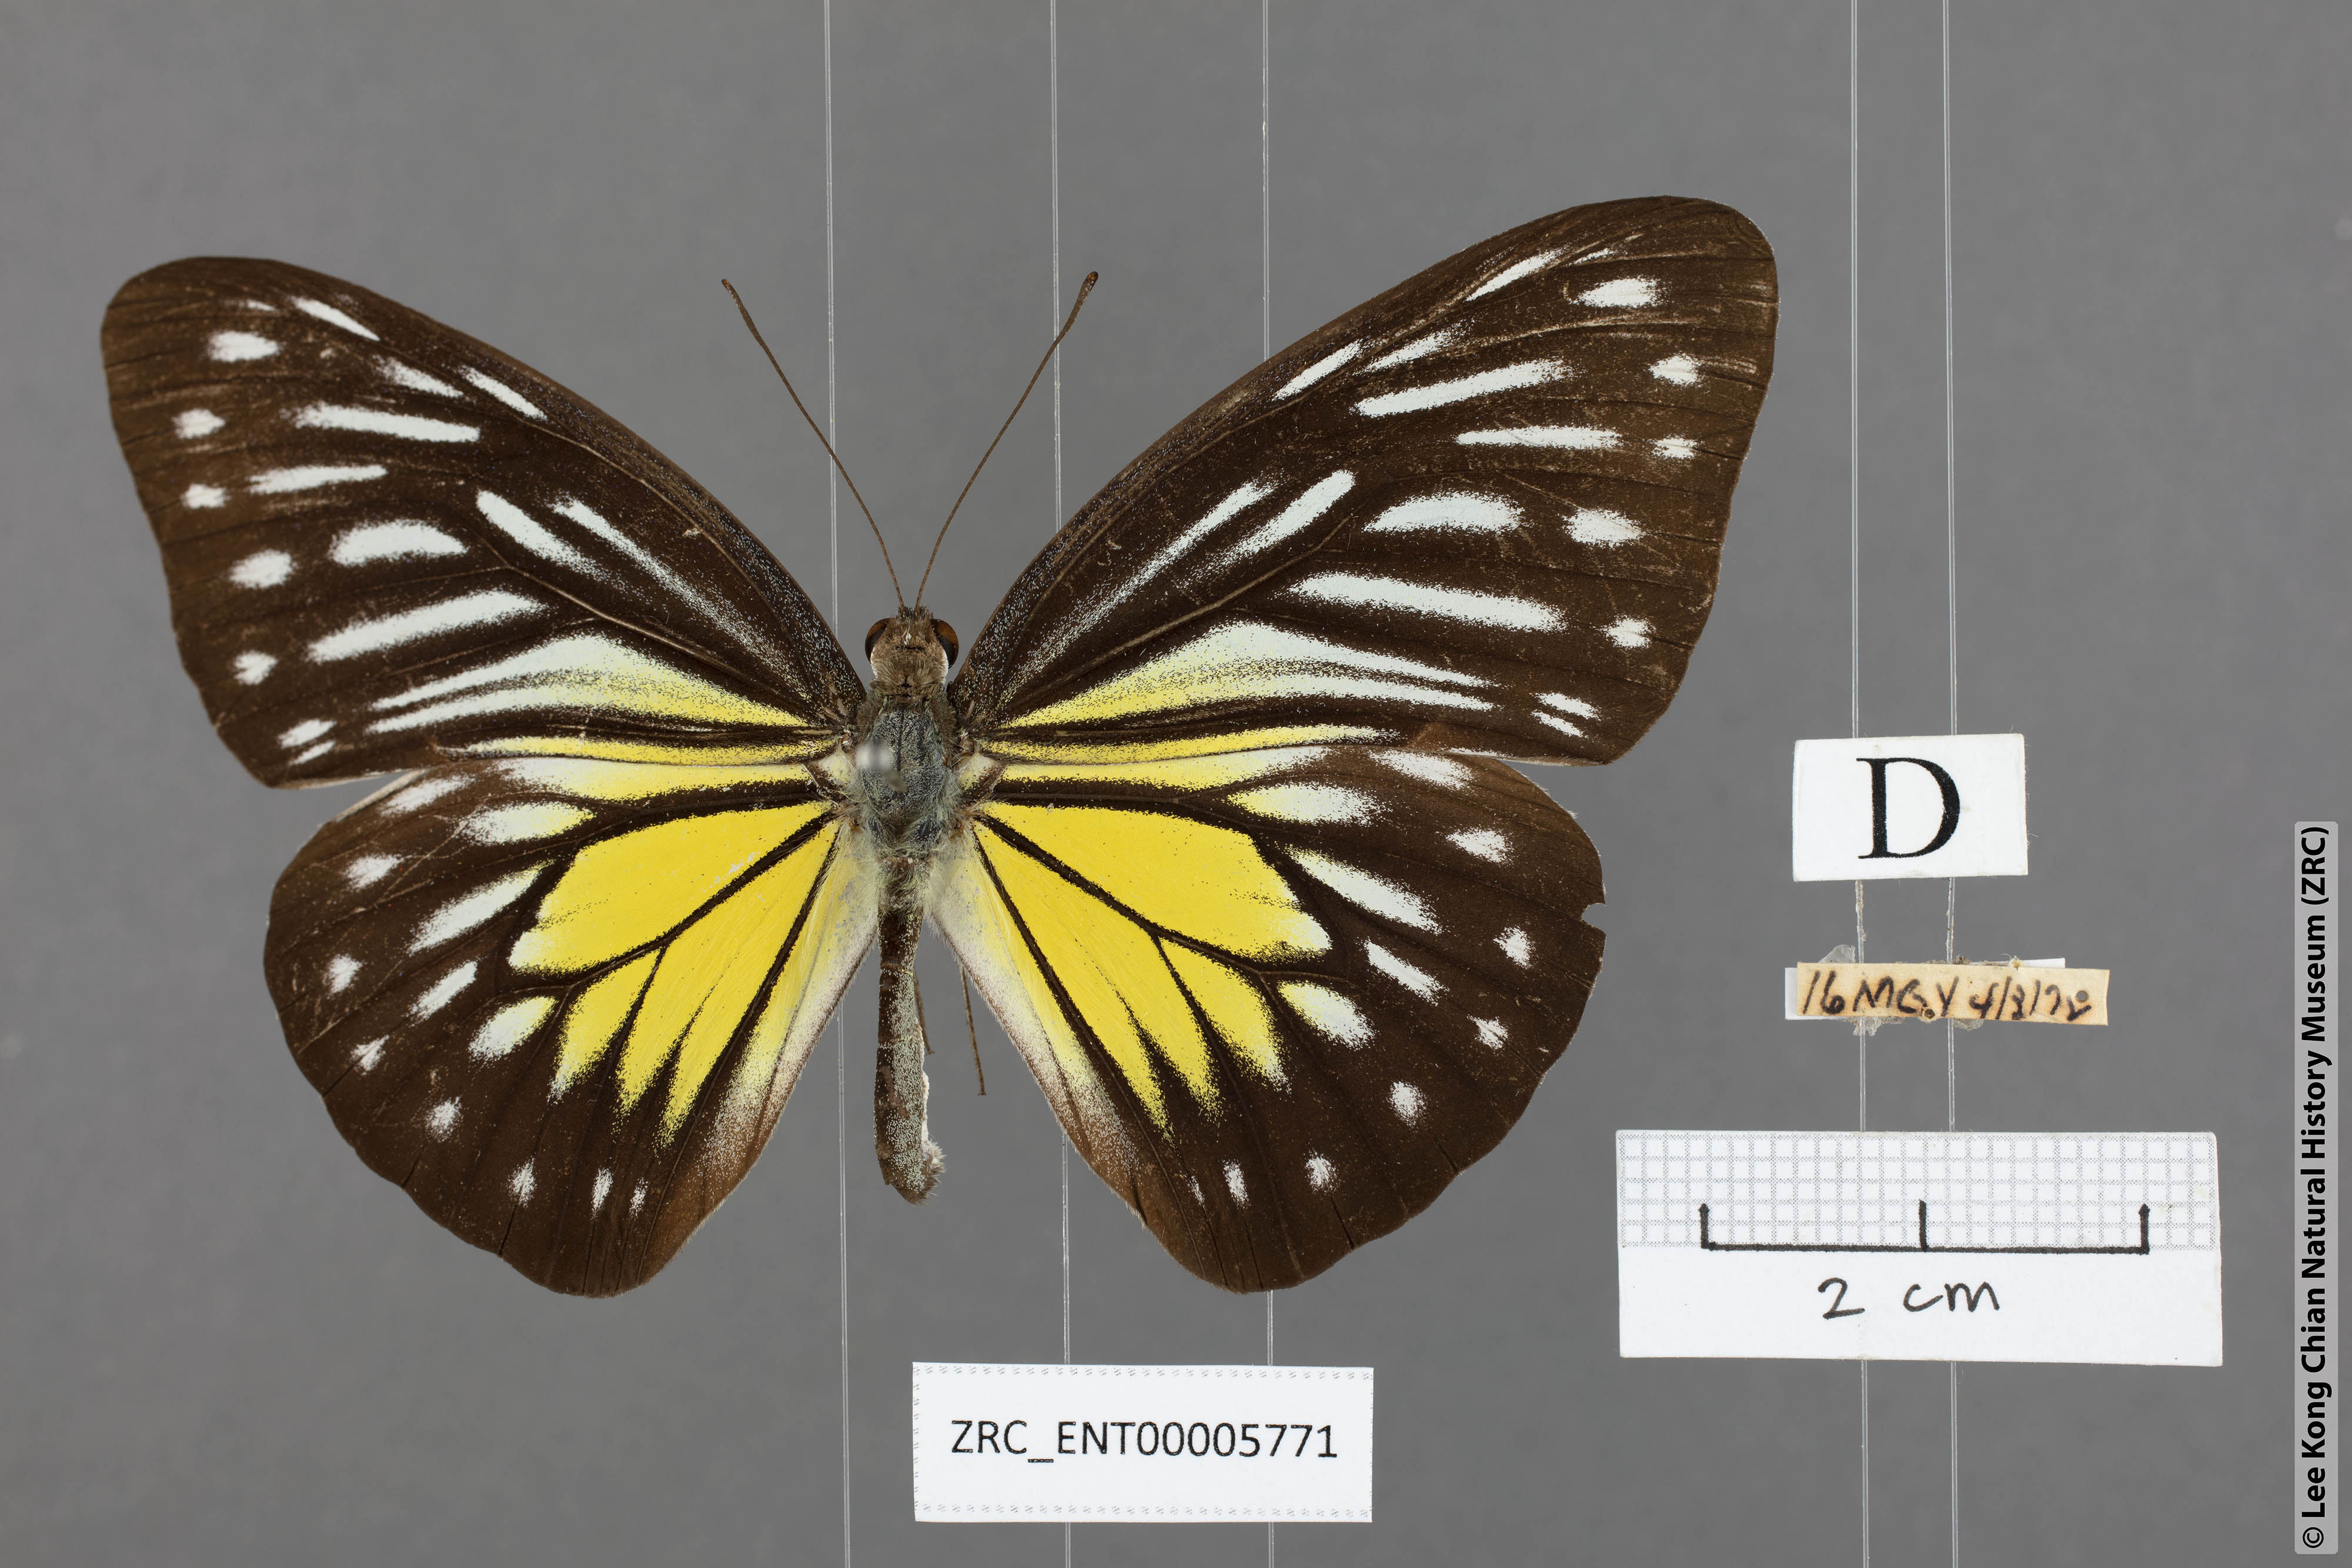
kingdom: Animalia
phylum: Arthropoda
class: Insecta
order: Lepidoptera
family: Pieridae
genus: Pareronia
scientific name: Pareronia valeria
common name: Common wanderer?
